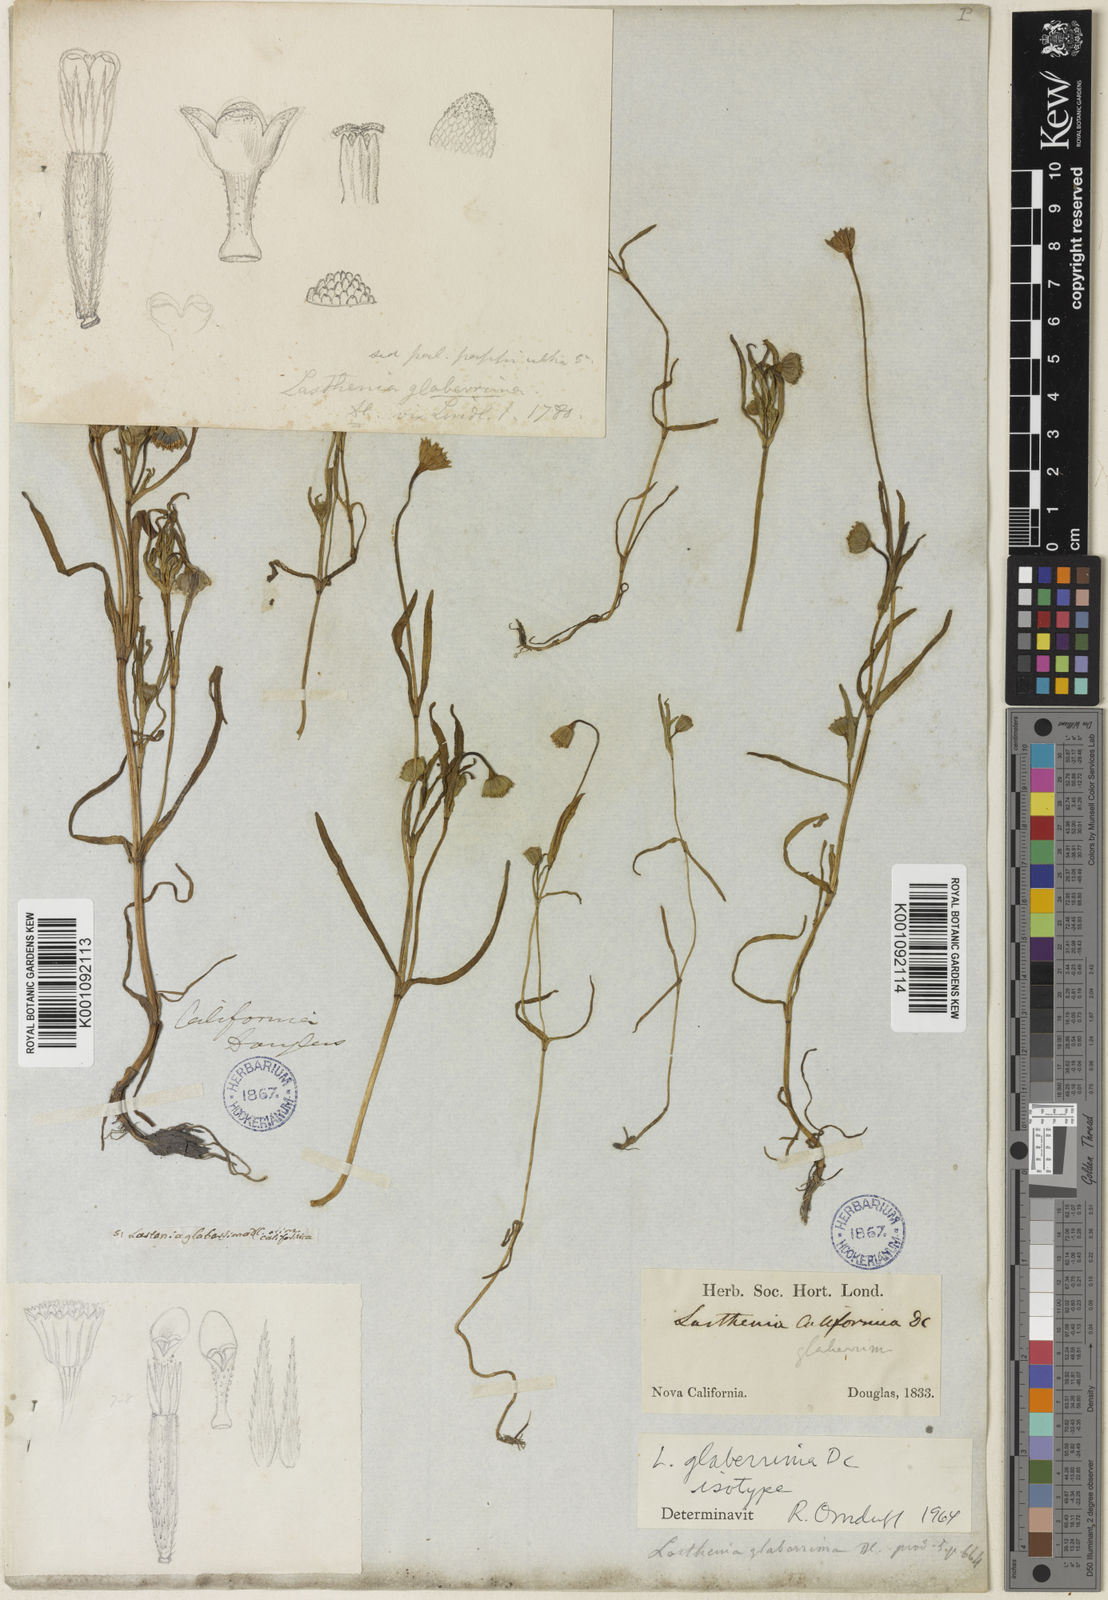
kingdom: Plantae
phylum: Tracheophyta
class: Magnoliopsida
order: Asterales
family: Asteraceae
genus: Lasthenia
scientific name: Lasthenia glaberrima
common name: Smooth goldfields
